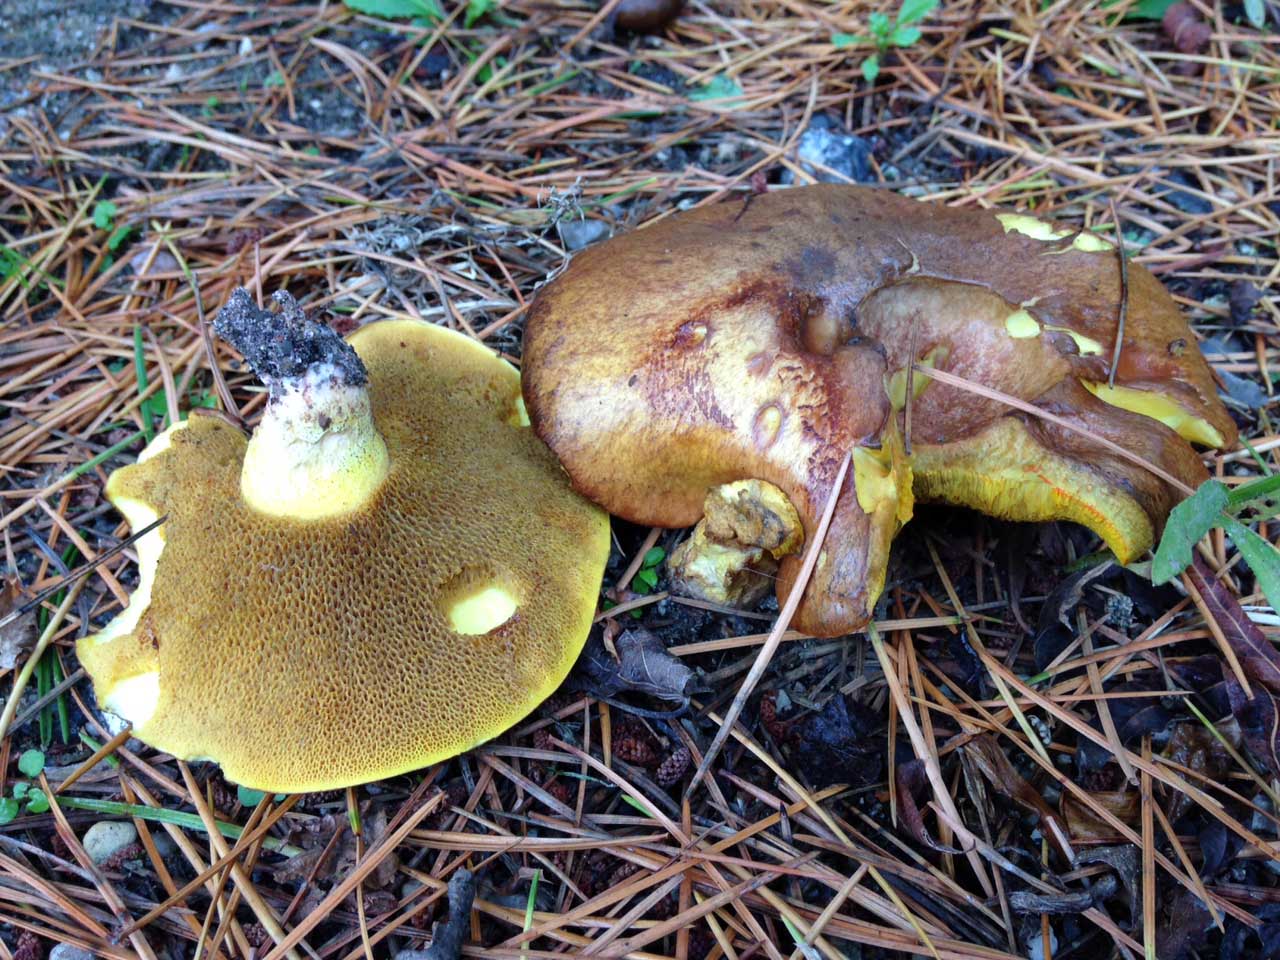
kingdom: Fungi
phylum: Basidiomycota
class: Agaricomycetes
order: Boletales
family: Suillaceae
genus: Suillus
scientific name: Suillus collinitus
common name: rosafodet slimrørhat
